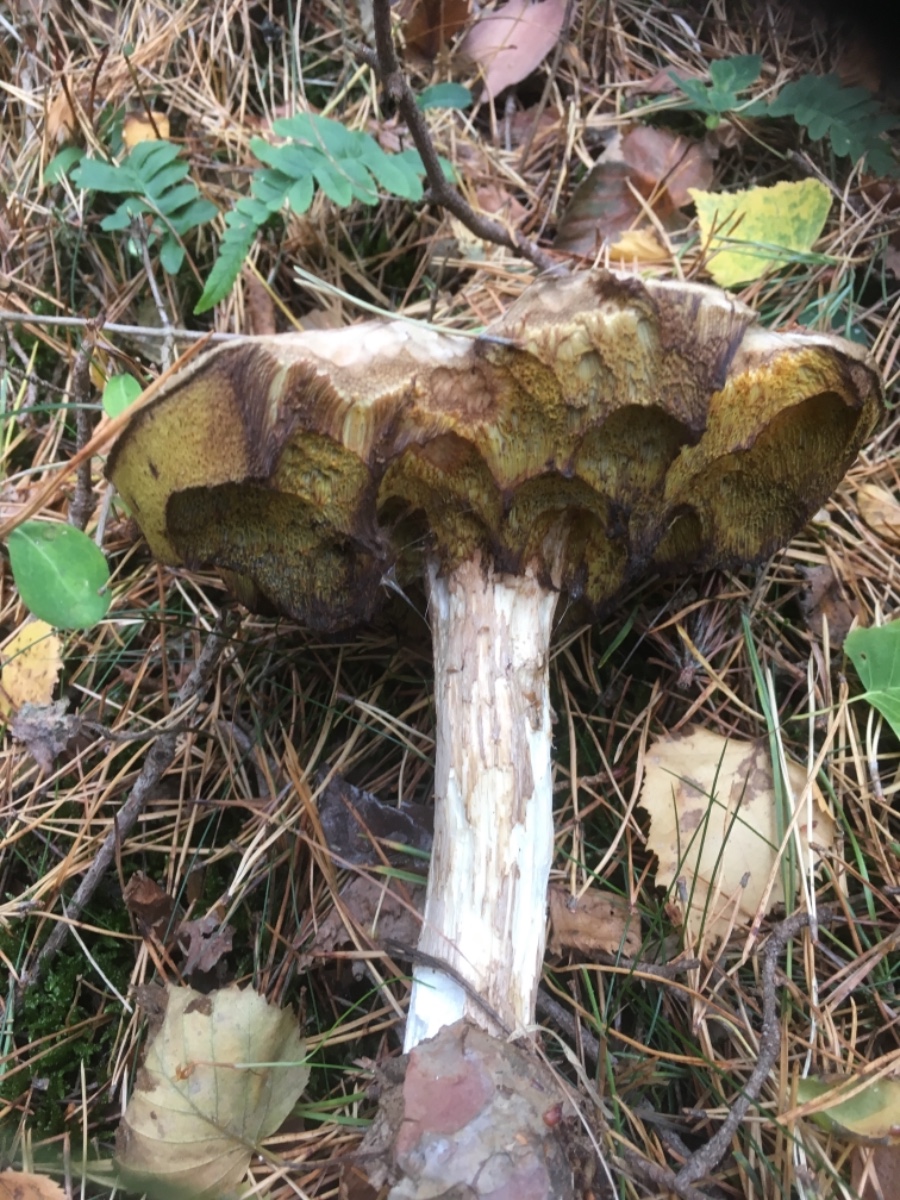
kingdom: Fungi
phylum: Basidiomycota
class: Agaricomycetes
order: Boletales
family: Boletaceae
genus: Boletus
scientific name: Boletus edulis
